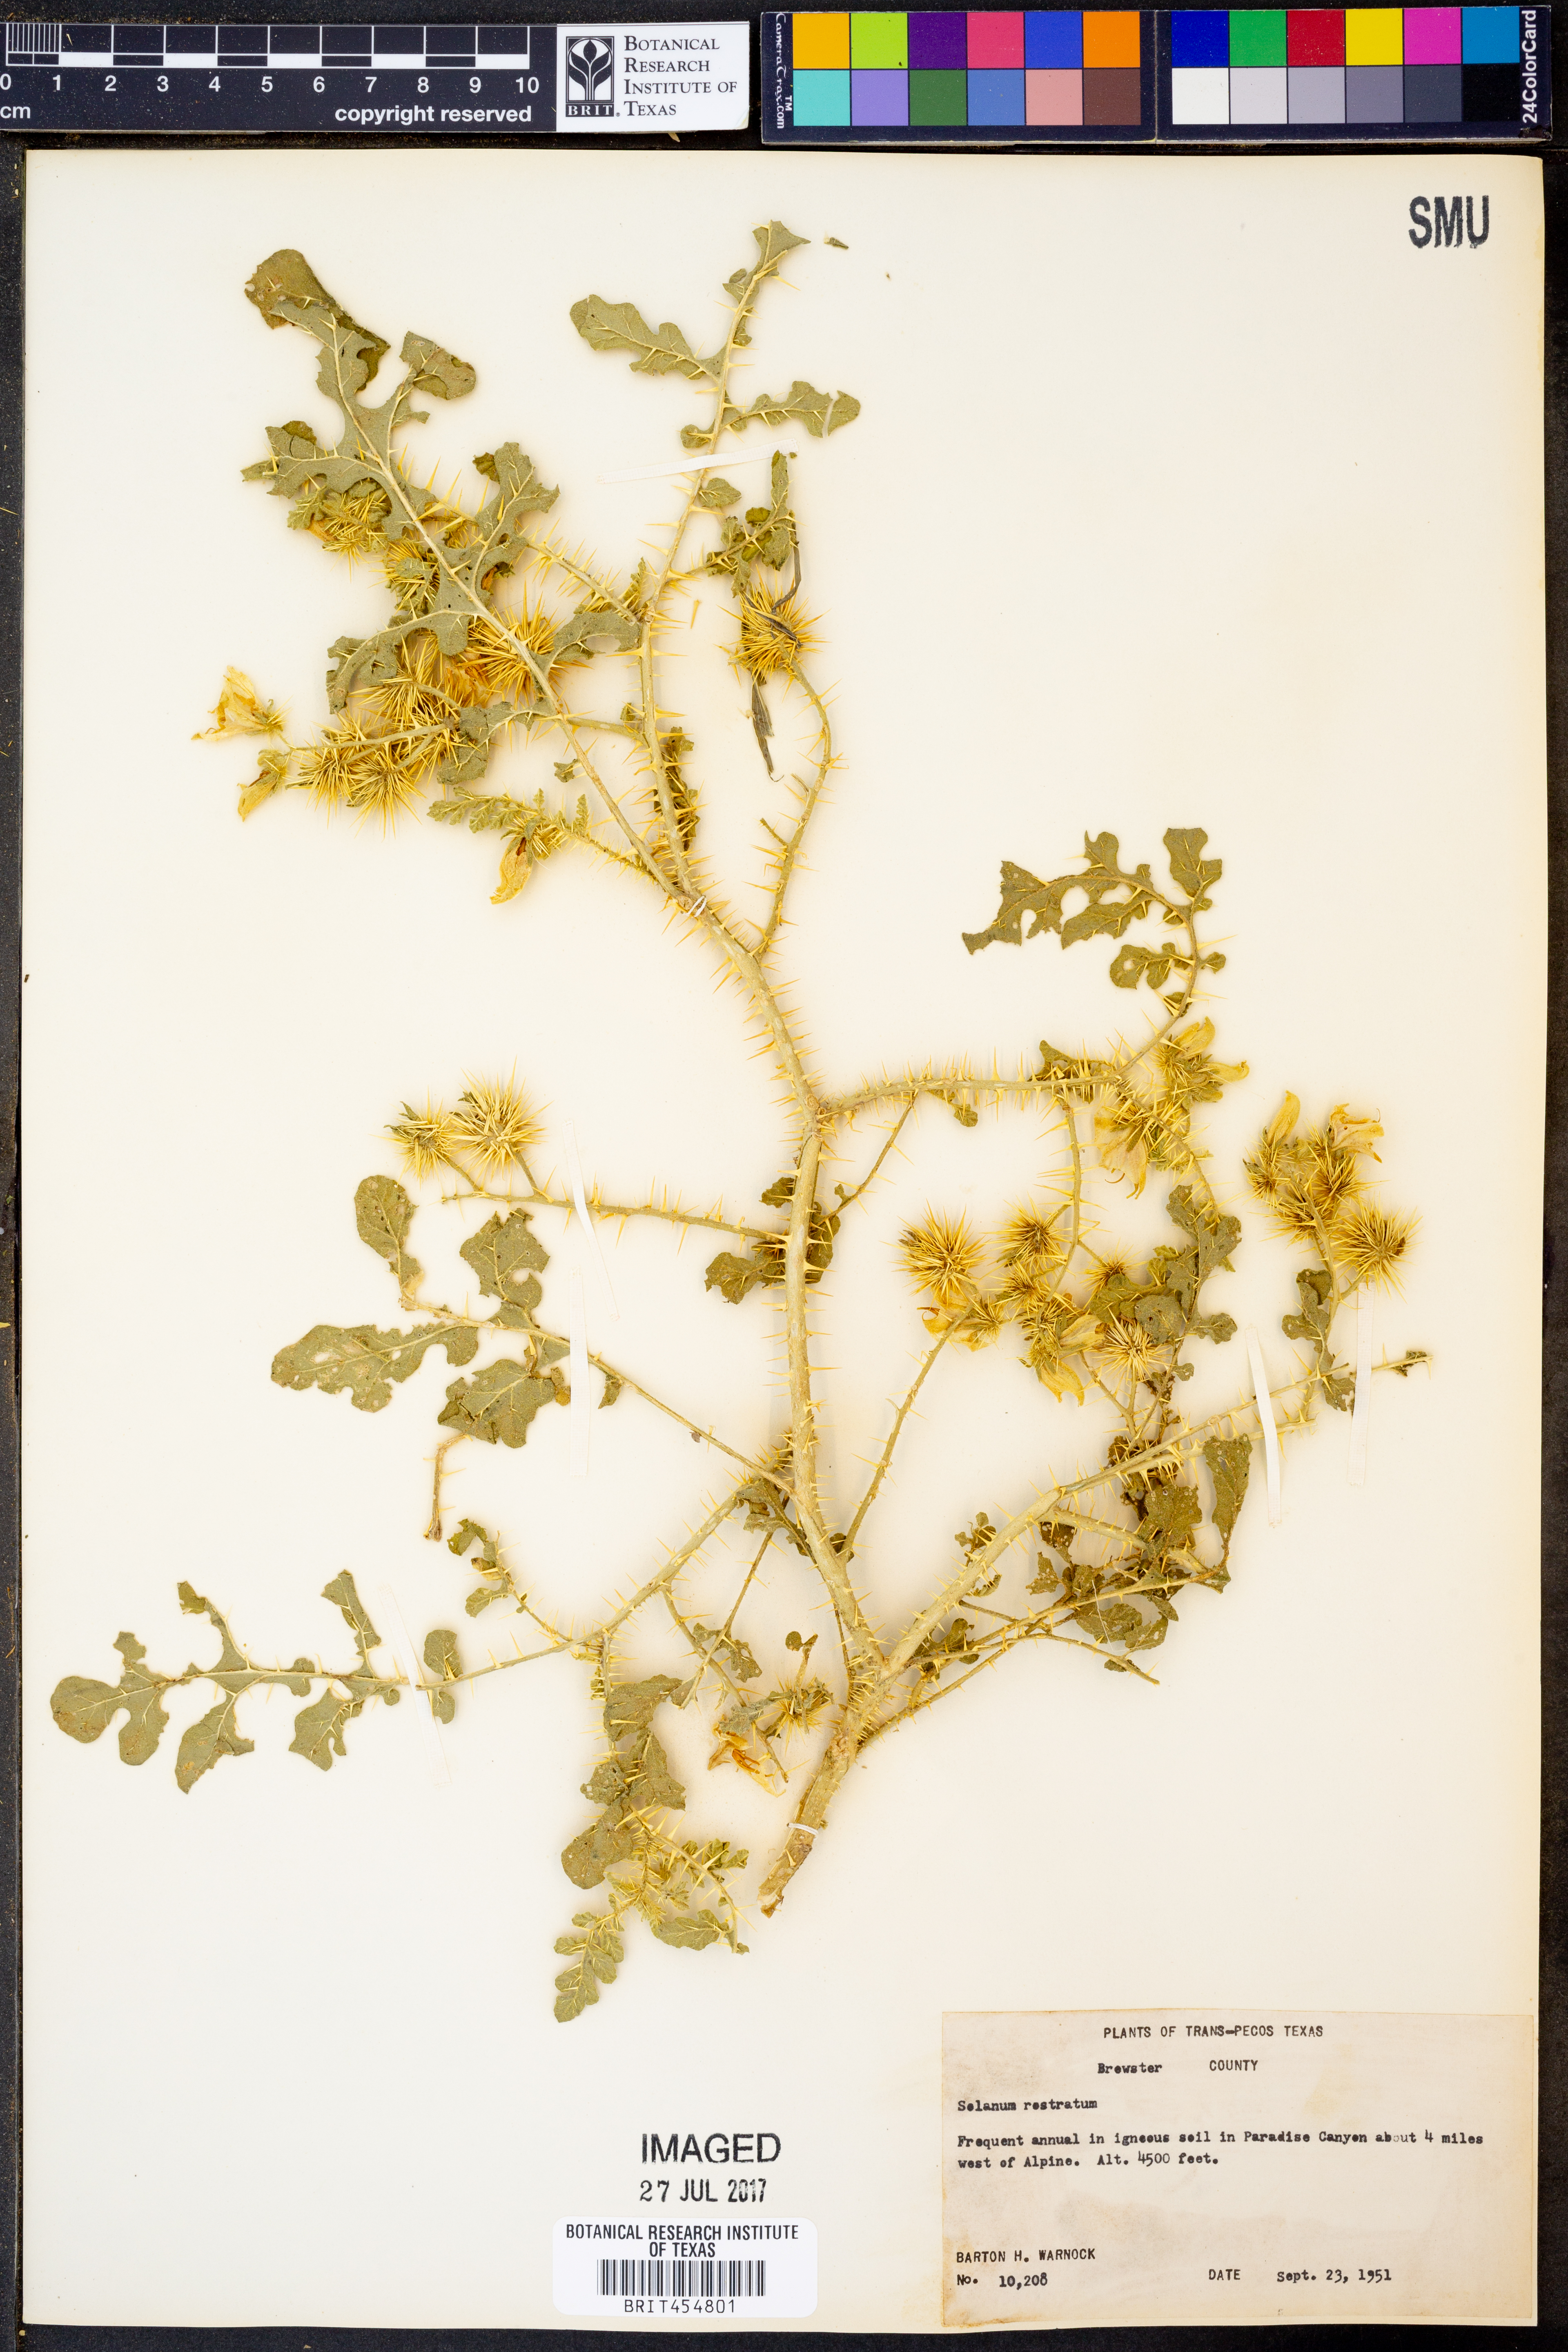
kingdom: Plantae
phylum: Tracheophyta
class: Magnoliopsida
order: Solanales
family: Solanaceae
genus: Solanum
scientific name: Solanum angustifolium
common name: Buffalobur nightshade
